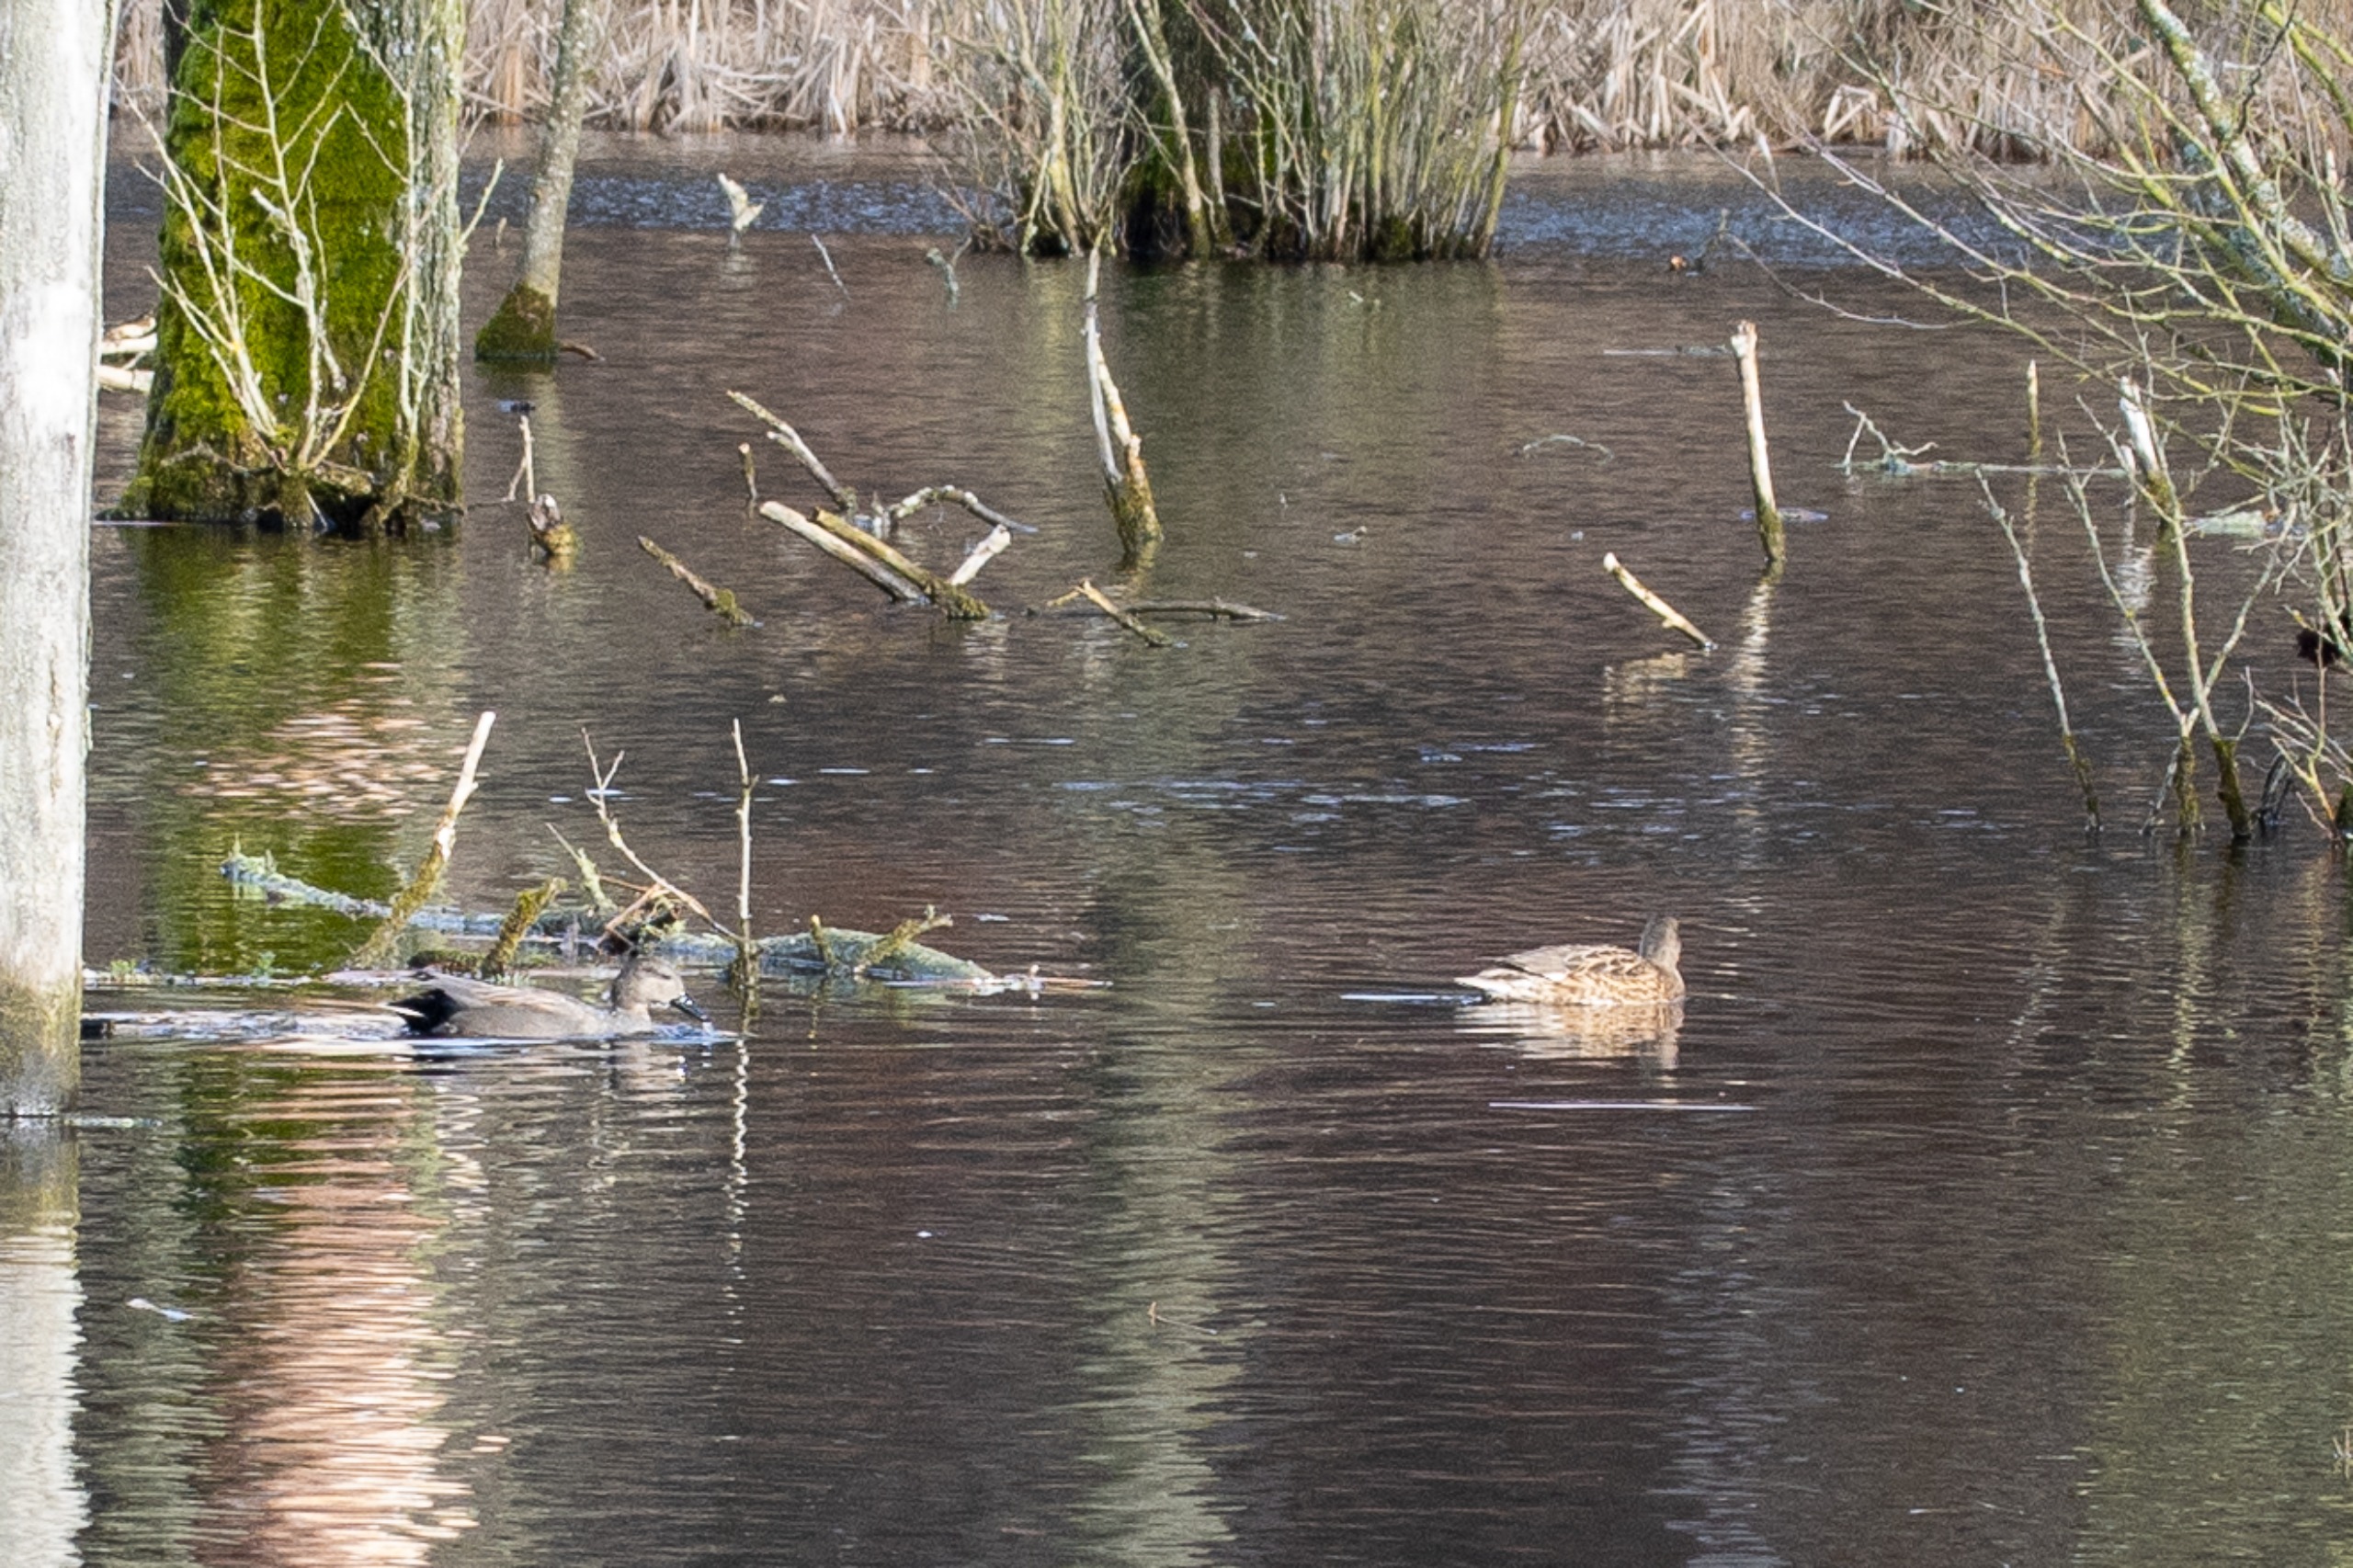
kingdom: Animalia
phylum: Chordata
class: Aves
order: Anseriformes
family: Anatidae
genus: Mareca
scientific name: Mareca strepera
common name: Knarand
